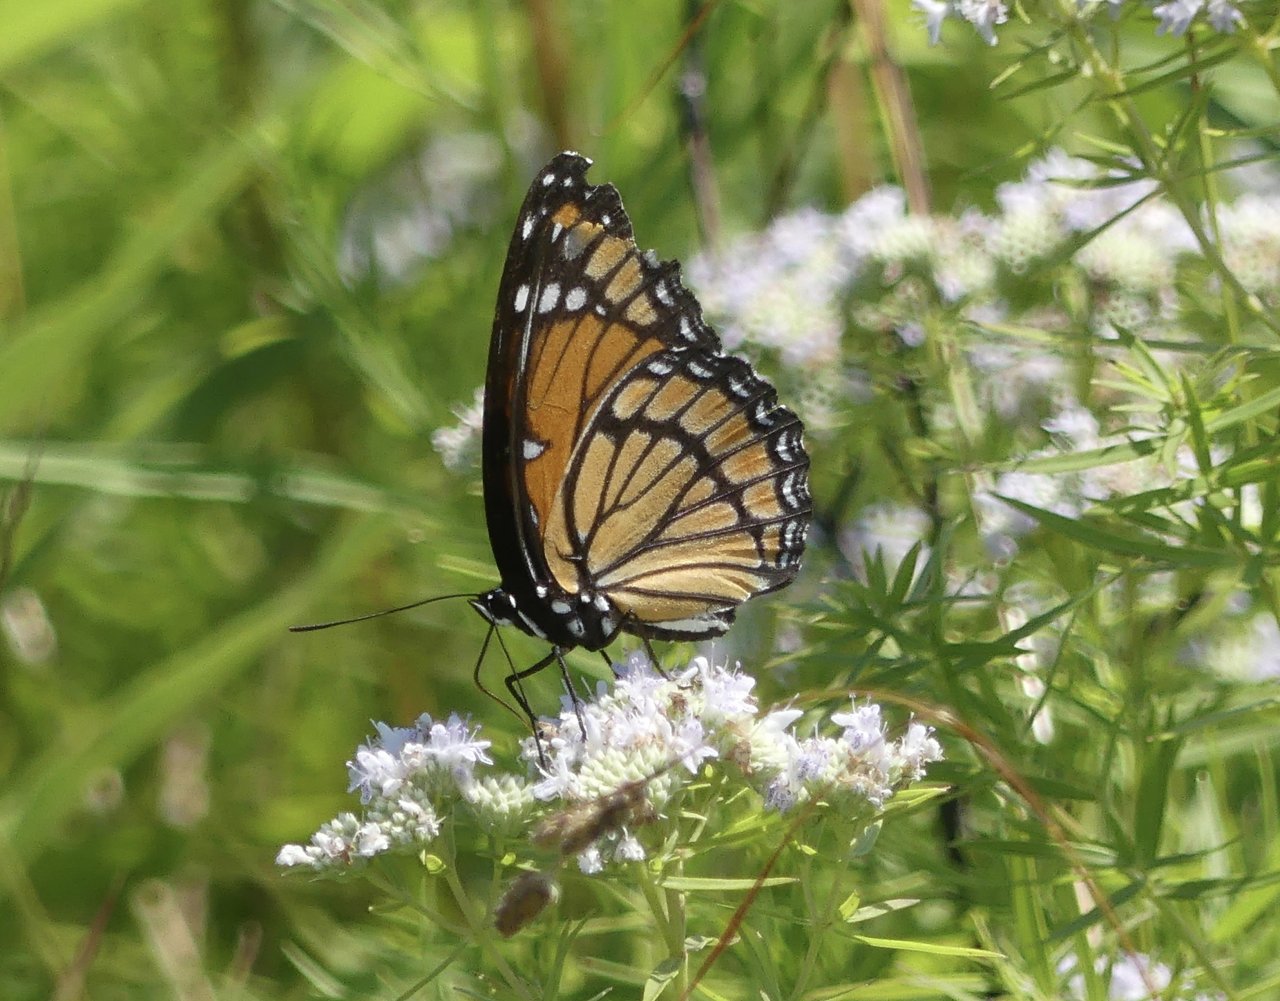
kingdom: Animalia
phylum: Arthropoda
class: Insecta
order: Lepidoptera
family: Nymphalidae
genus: Limenitis
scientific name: Limenitis archippus
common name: Viceroy
